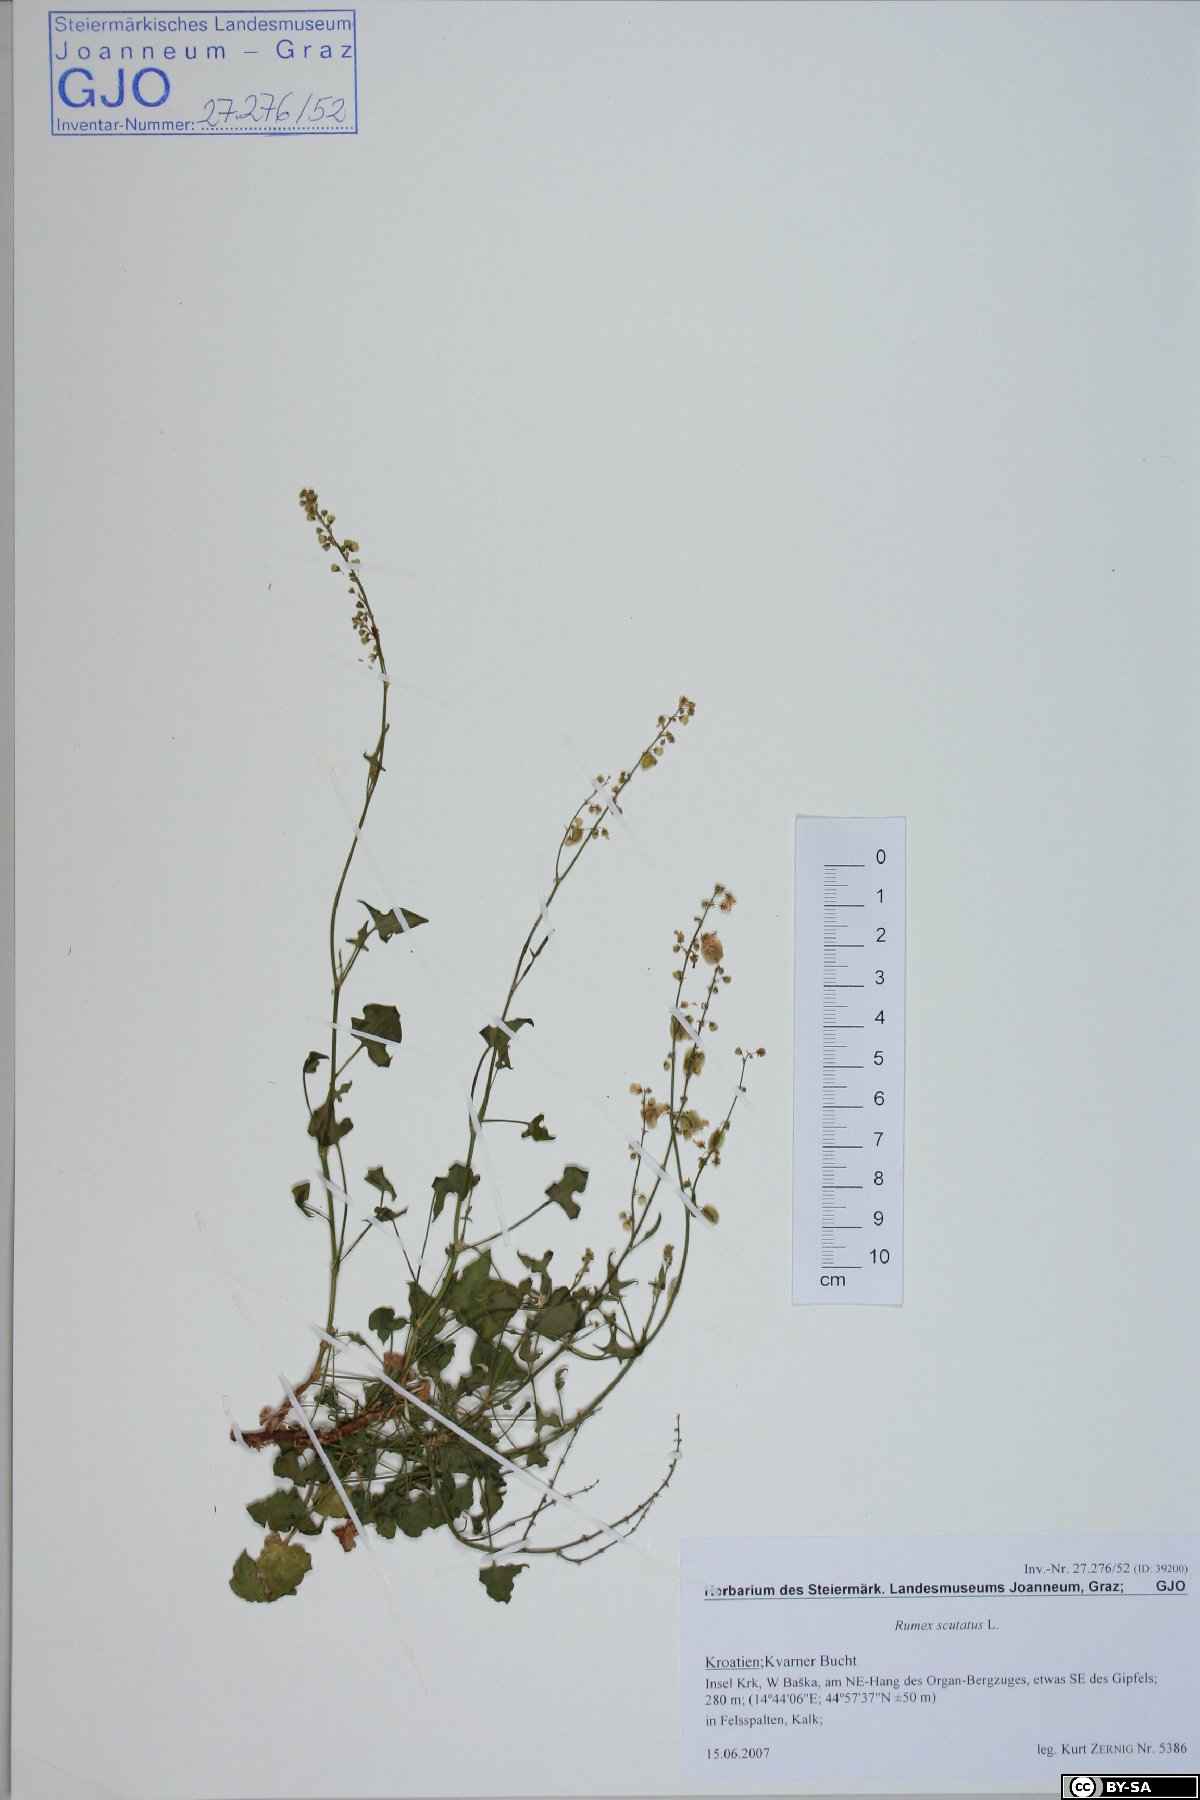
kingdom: Plantae
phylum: Tracheophyta
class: Magnoliopsida
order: Caryophyllales
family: Polygonaceae
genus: Rumex
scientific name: Rumex scutatus
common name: French sorrel
